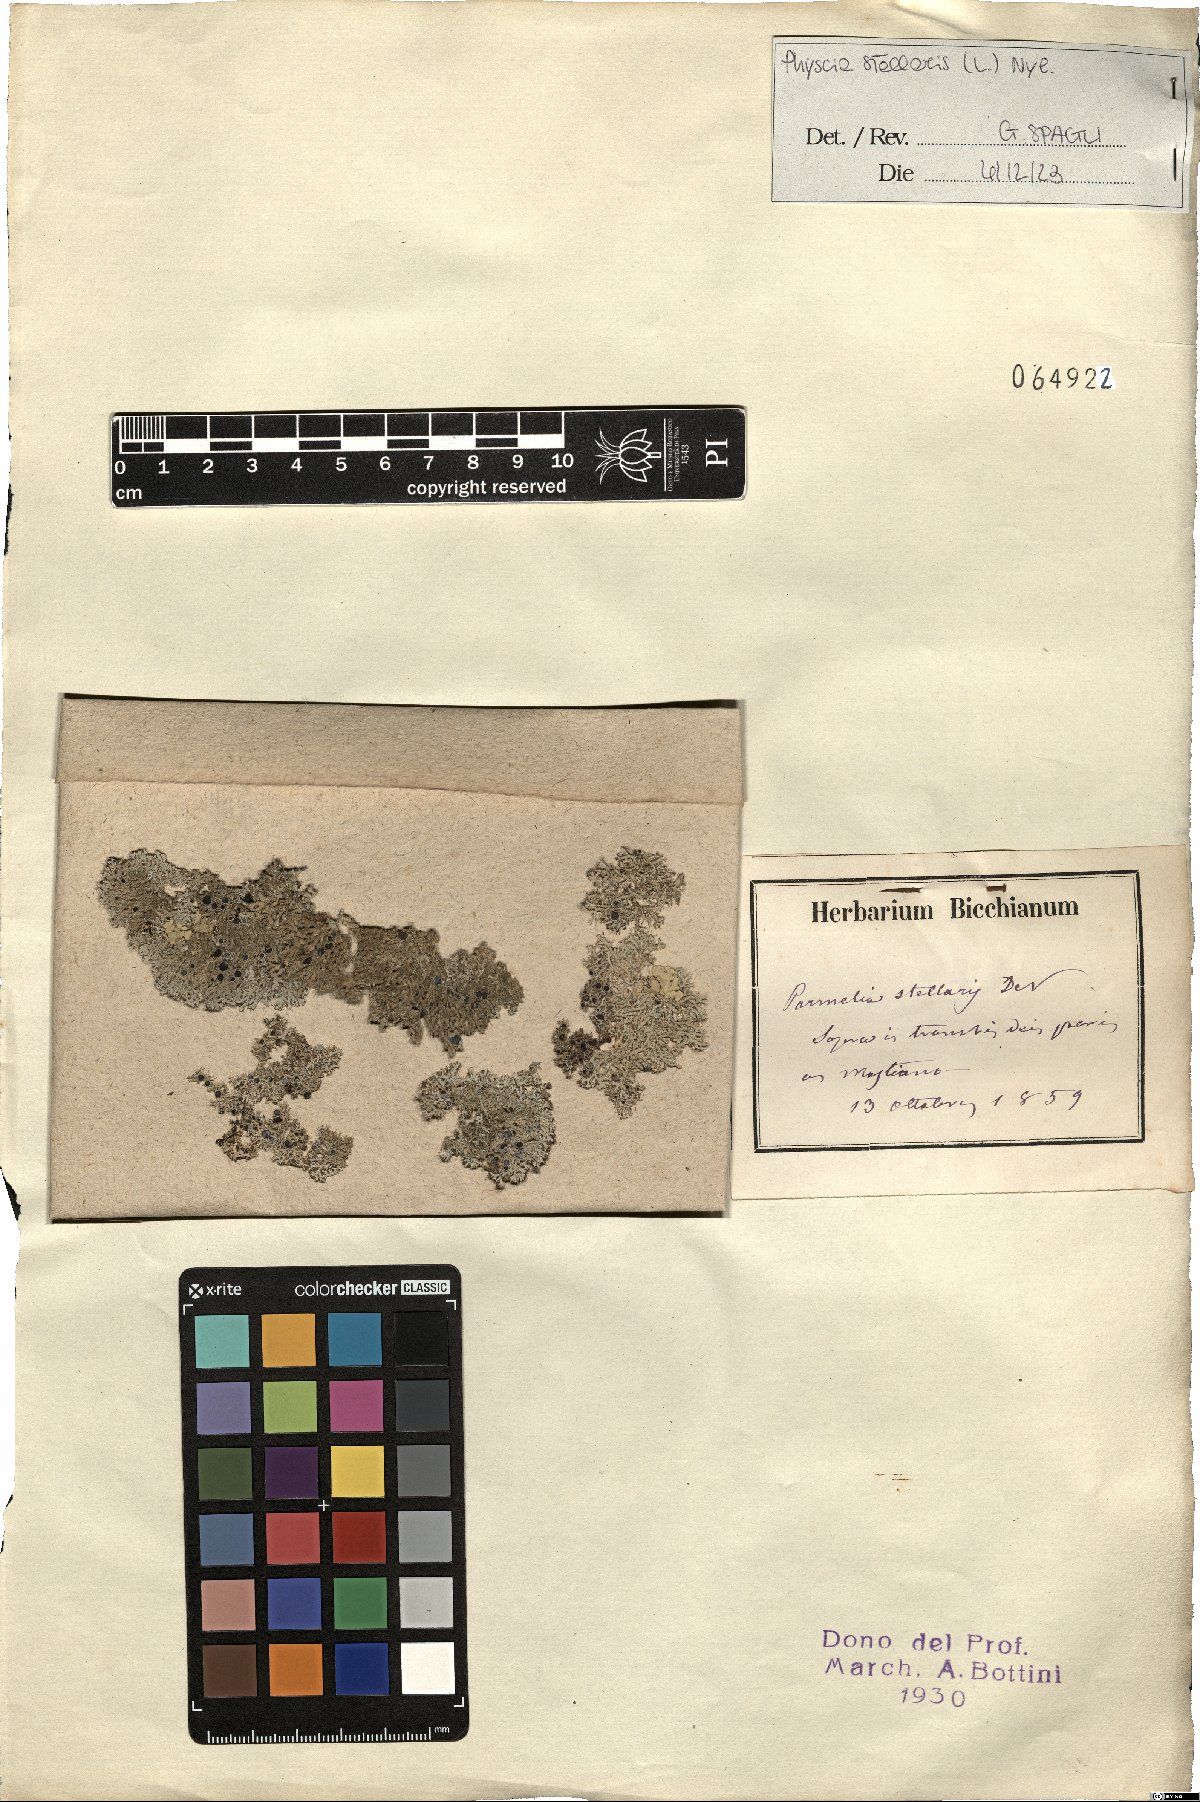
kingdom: Fungi
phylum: Ascomycota
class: Lecanoromycetes
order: Caliciales
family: Physciaceae
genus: Physcia
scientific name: Physcia stellaris
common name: Star rosette lichen
